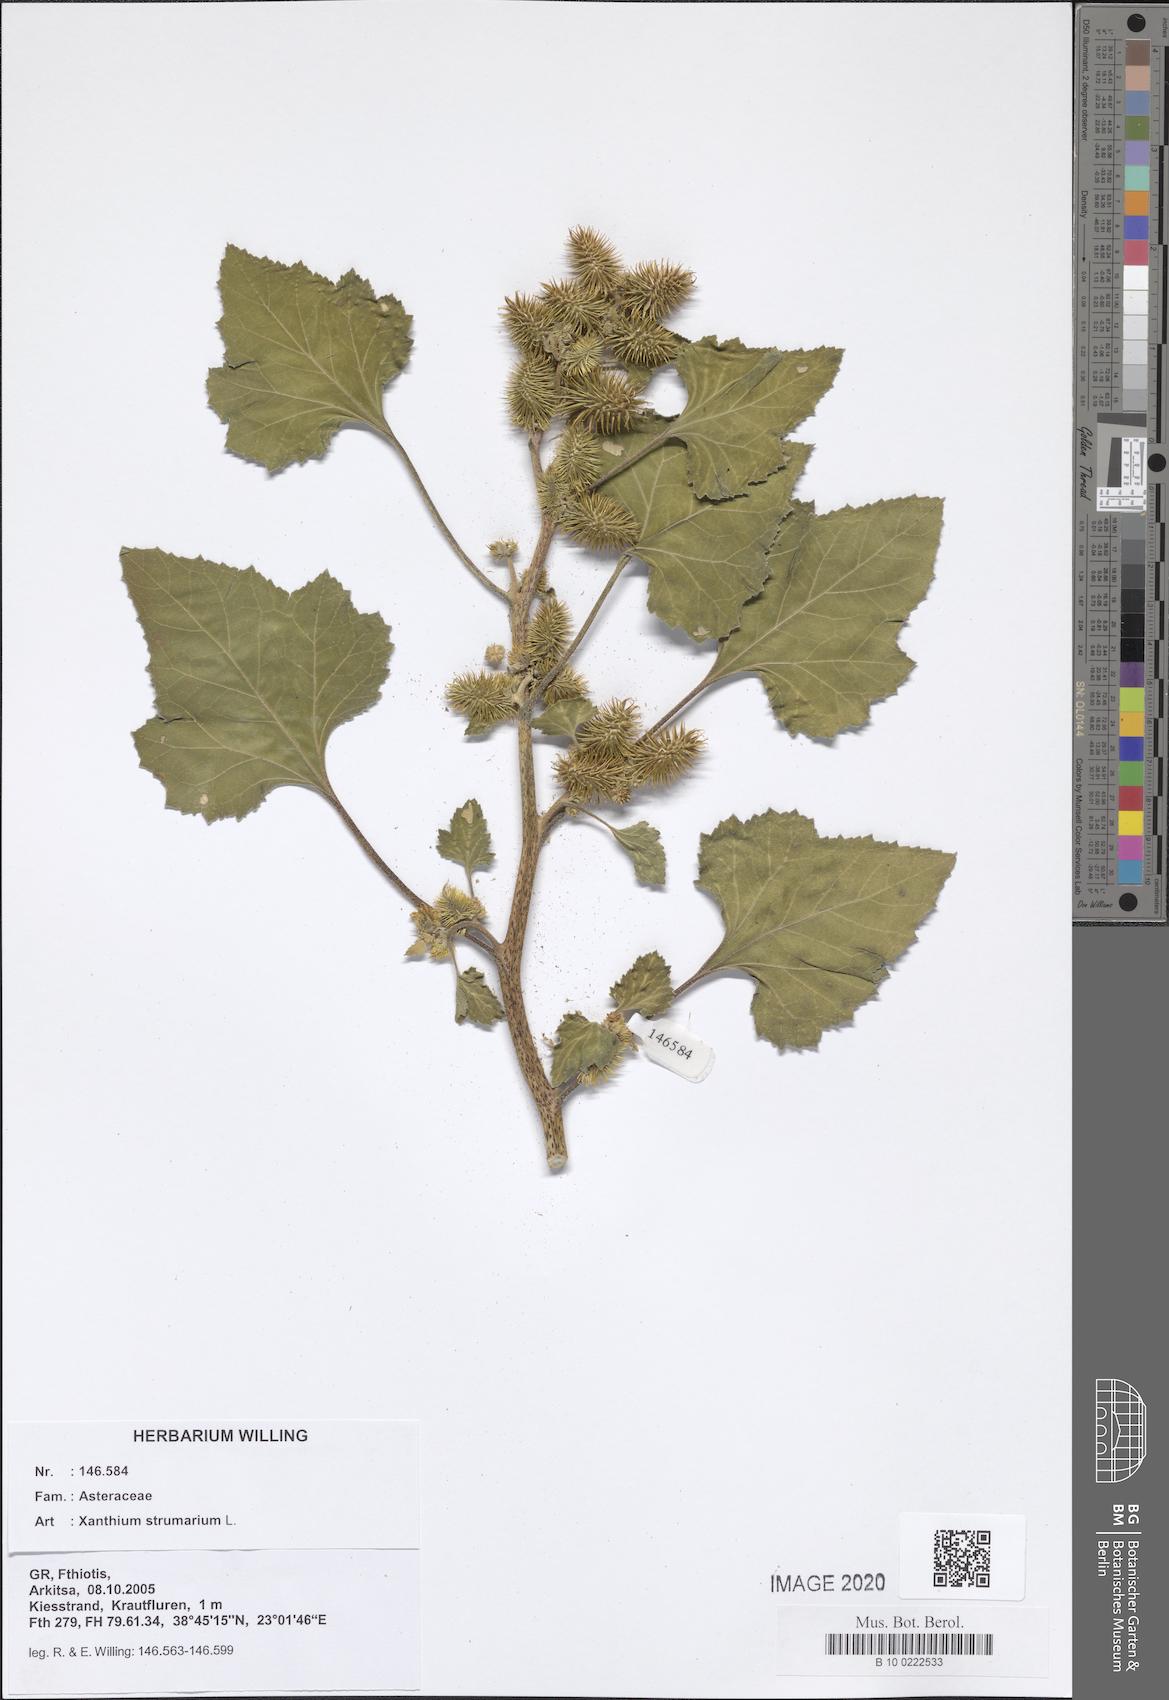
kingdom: Plantae
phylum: Tracheophyta
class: Magnoliopsida
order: Asterales
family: Asteraceae
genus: Xanthium
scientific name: Xanthium strumarium
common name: Rough cocklebur
